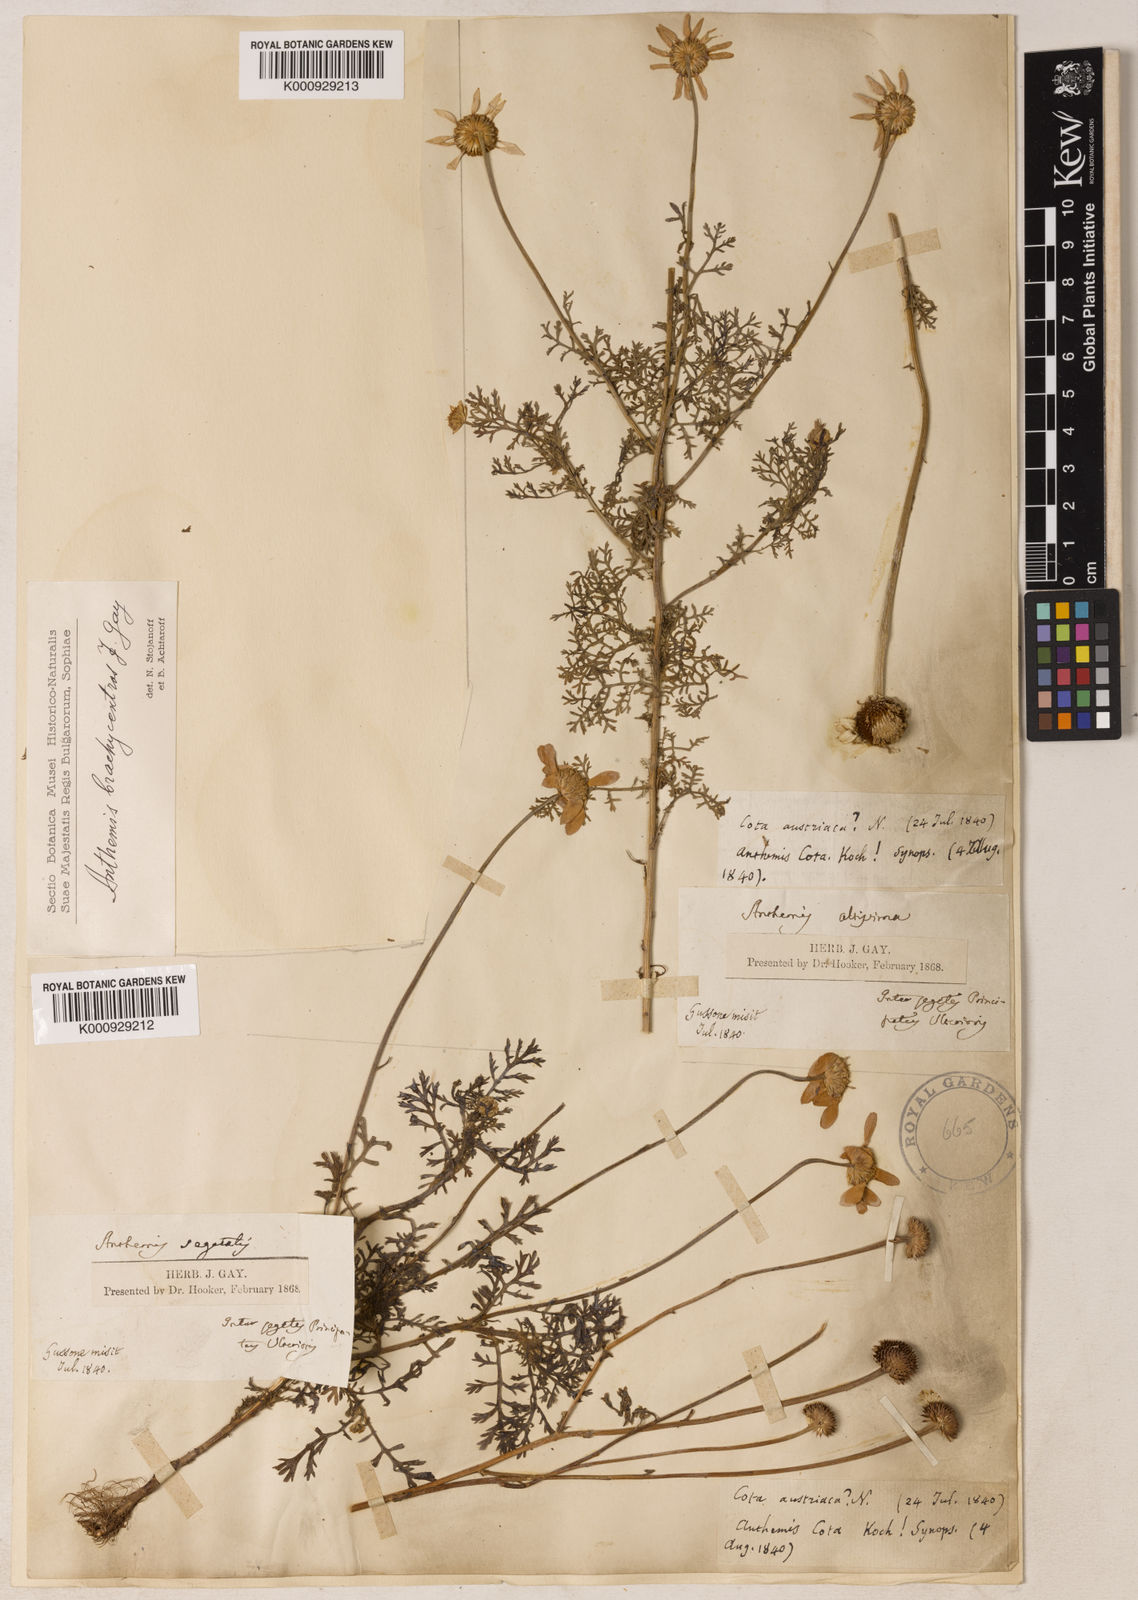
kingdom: Plantae
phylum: Tracheophyta
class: Magnoliopsida
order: Asterales
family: Asteraceae
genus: Cota
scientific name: Cota segetalis
